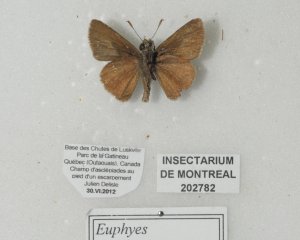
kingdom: Animalia
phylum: Arthropoda
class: Insecta
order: Lepidoptera
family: Hesperiidae
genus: Euphyes
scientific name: Euphyes vestris
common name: Dun Skipper
